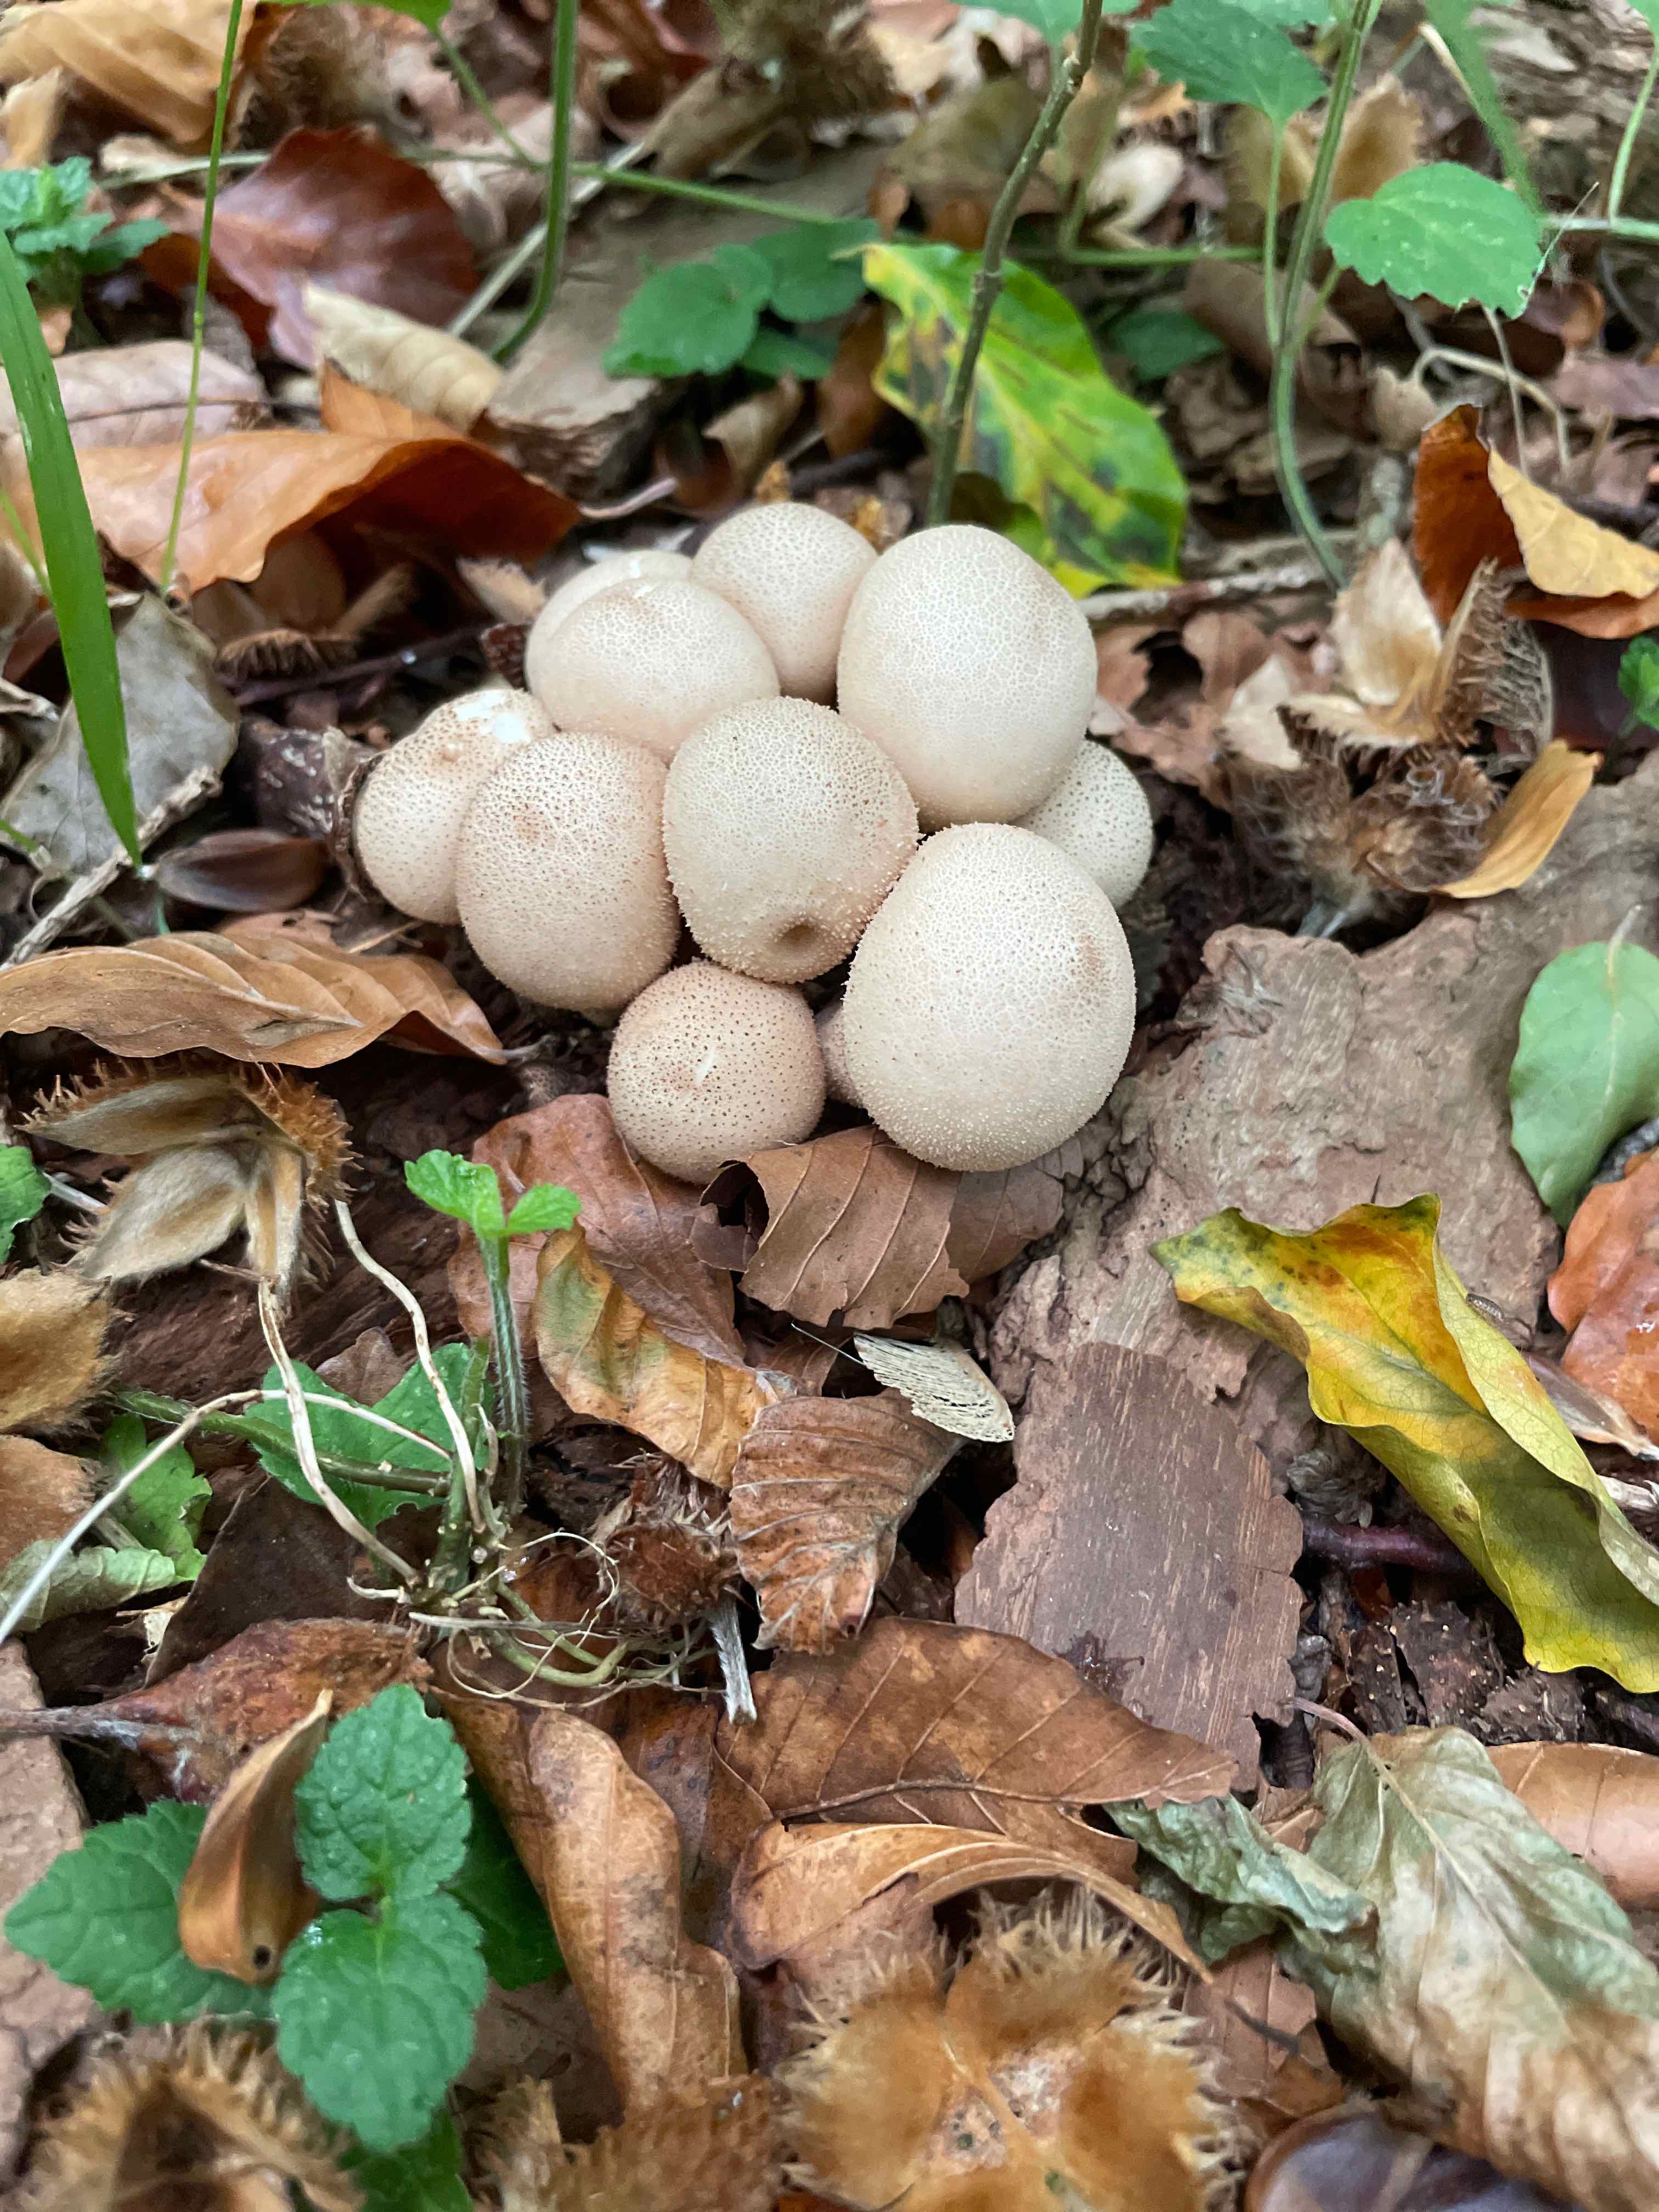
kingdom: Fungi
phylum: Basidiomycota
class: Agaricomycetes
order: Agaricales
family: Lycoperdaceae
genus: Apioperdon
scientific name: Apioperdon pyriforme
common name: pære-støvbold
